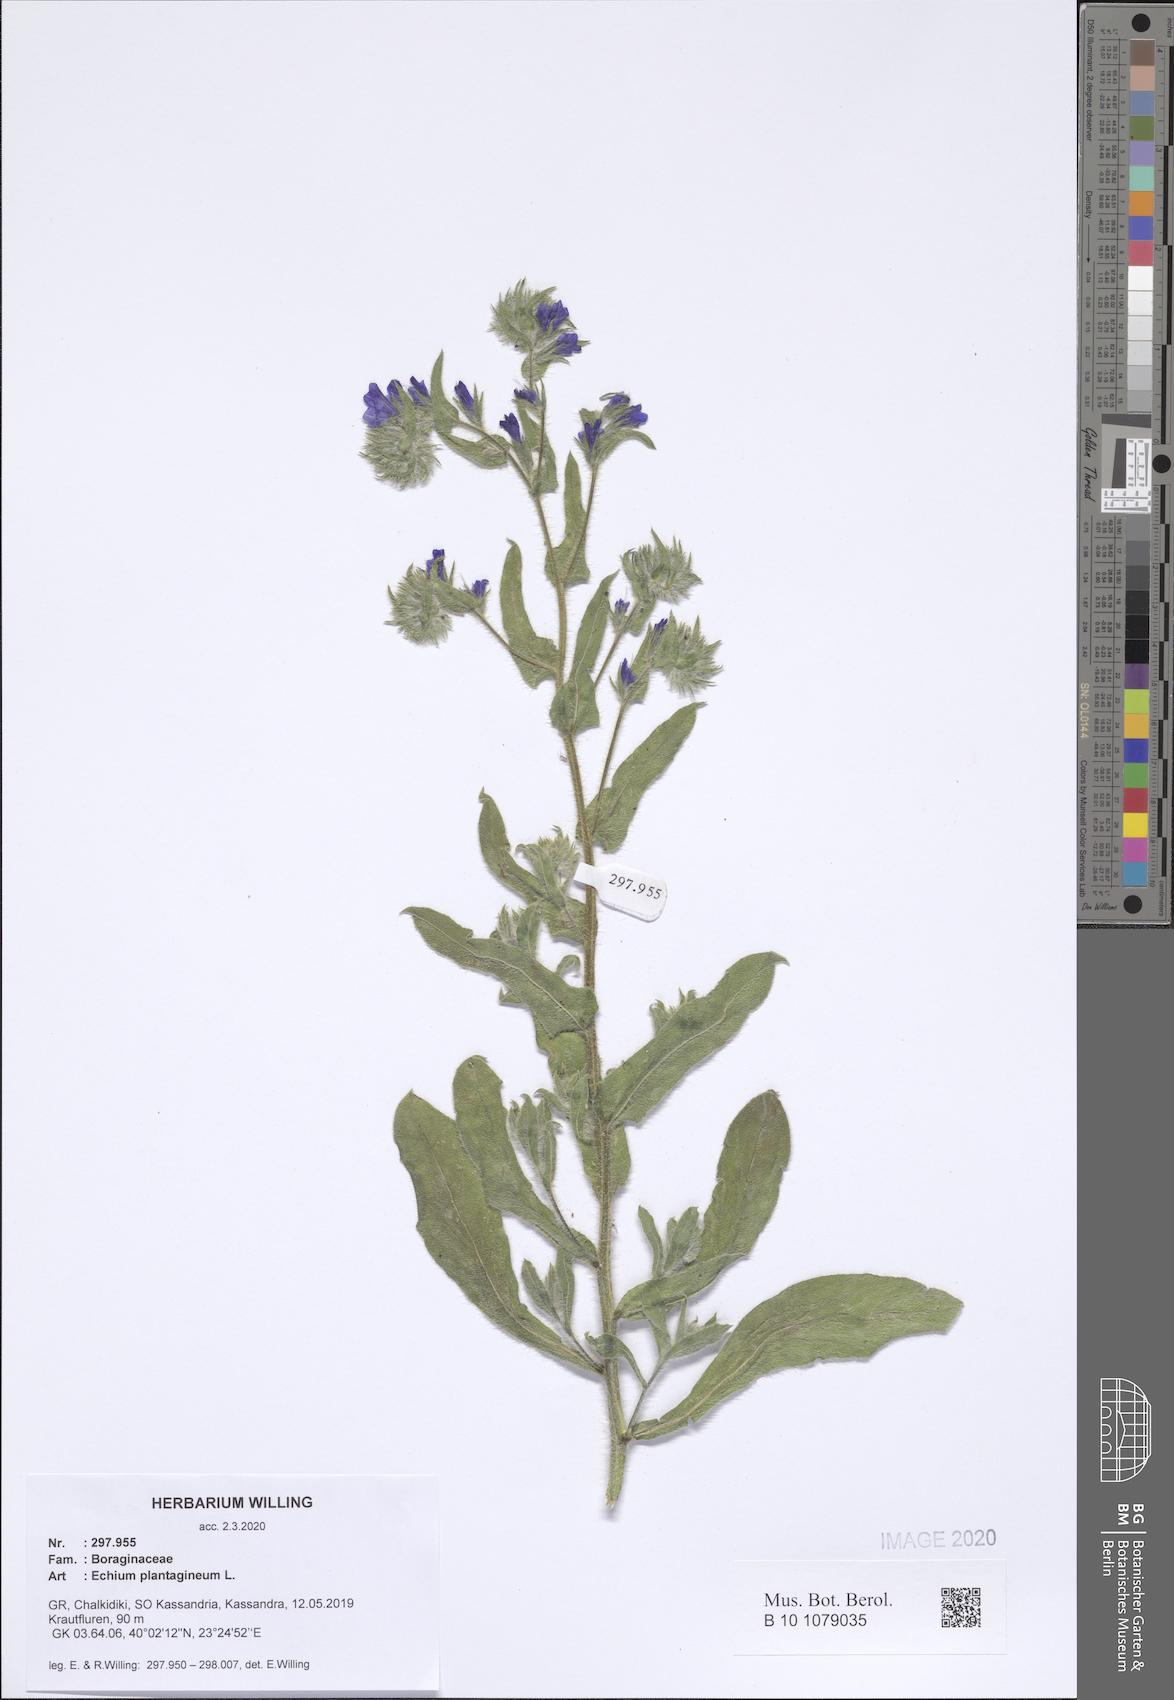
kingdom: Plantae
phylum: Tracheophyta
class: Magnoliopsida
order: Boraginales
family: Boraginaceae
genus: Echium
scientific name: Echium plantagineum
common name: Purple viper's-bugloss
